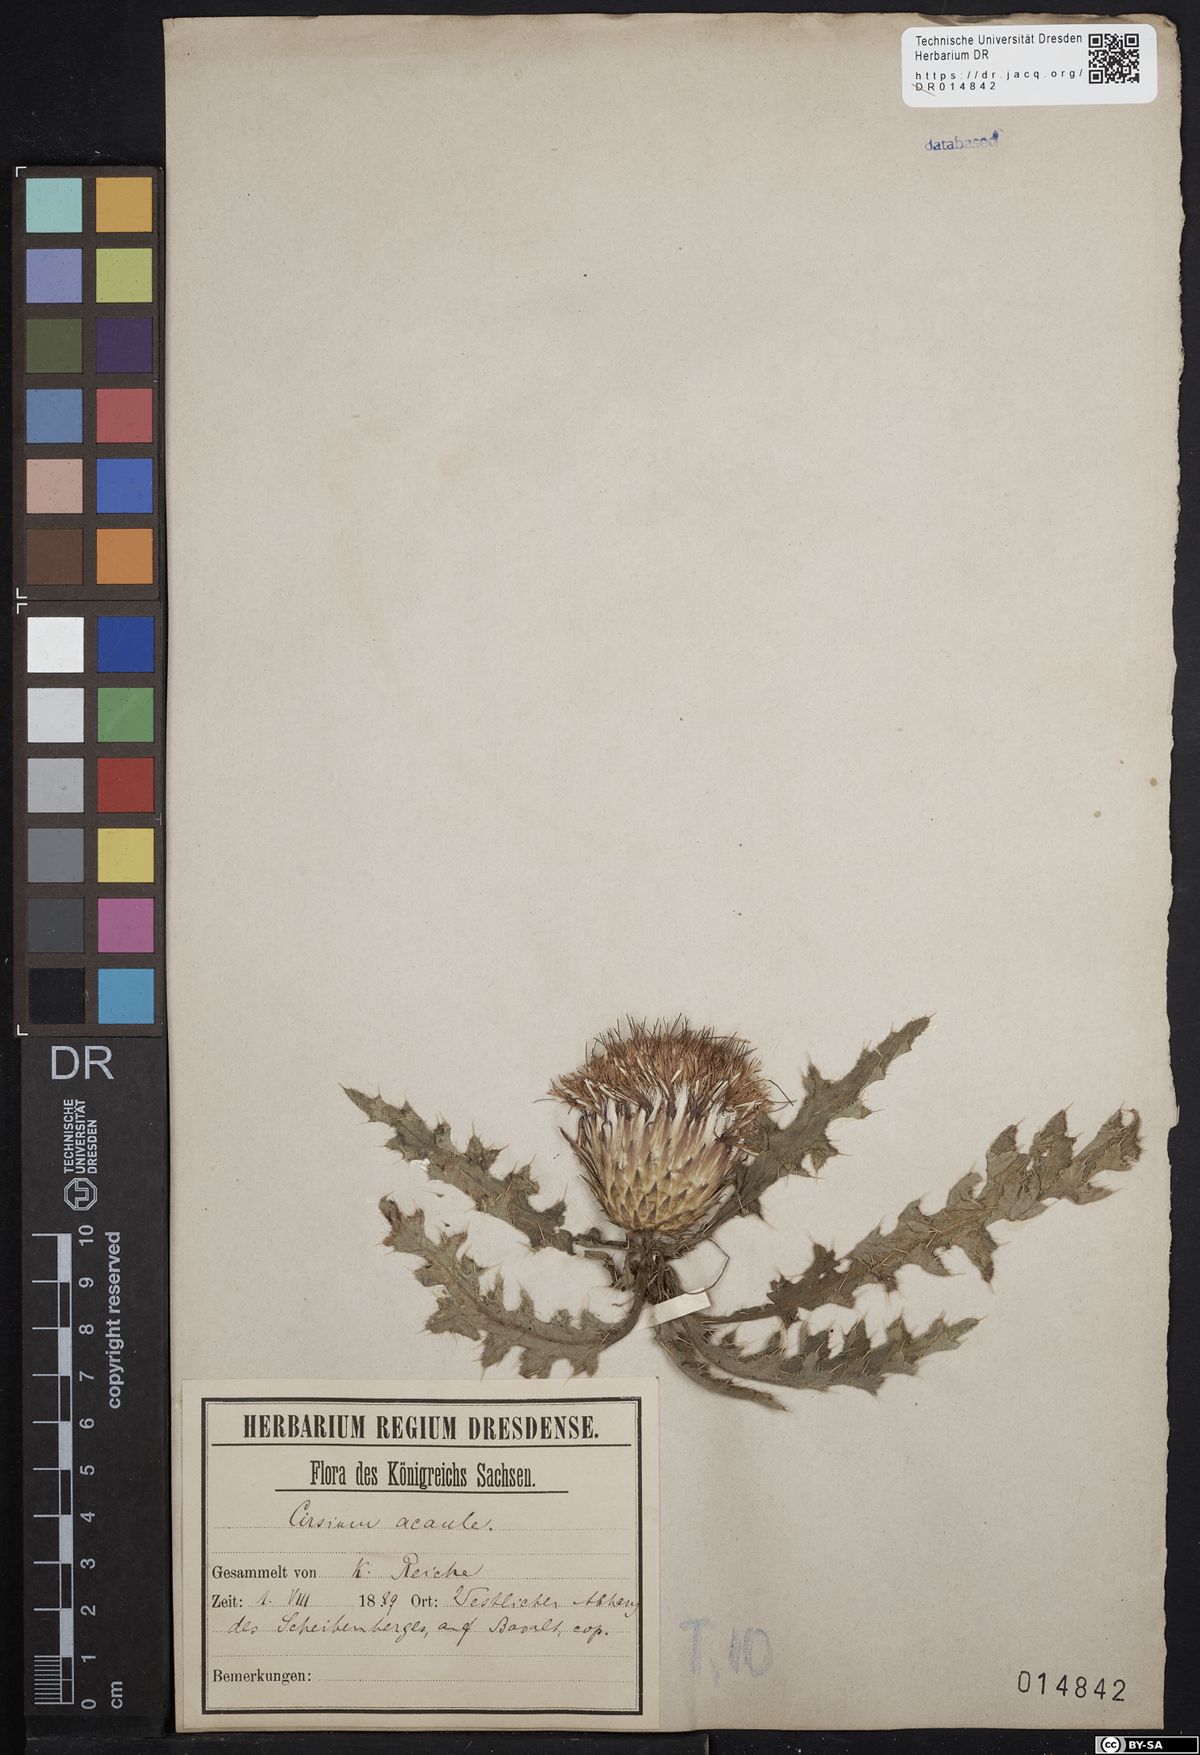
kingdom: Plantae
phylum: Tracheophyta
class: Magnoliopsida
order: Asterales
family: Asteraceae
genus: Cirsium
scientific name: Cirsium acaule
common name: Dwarf thistle
